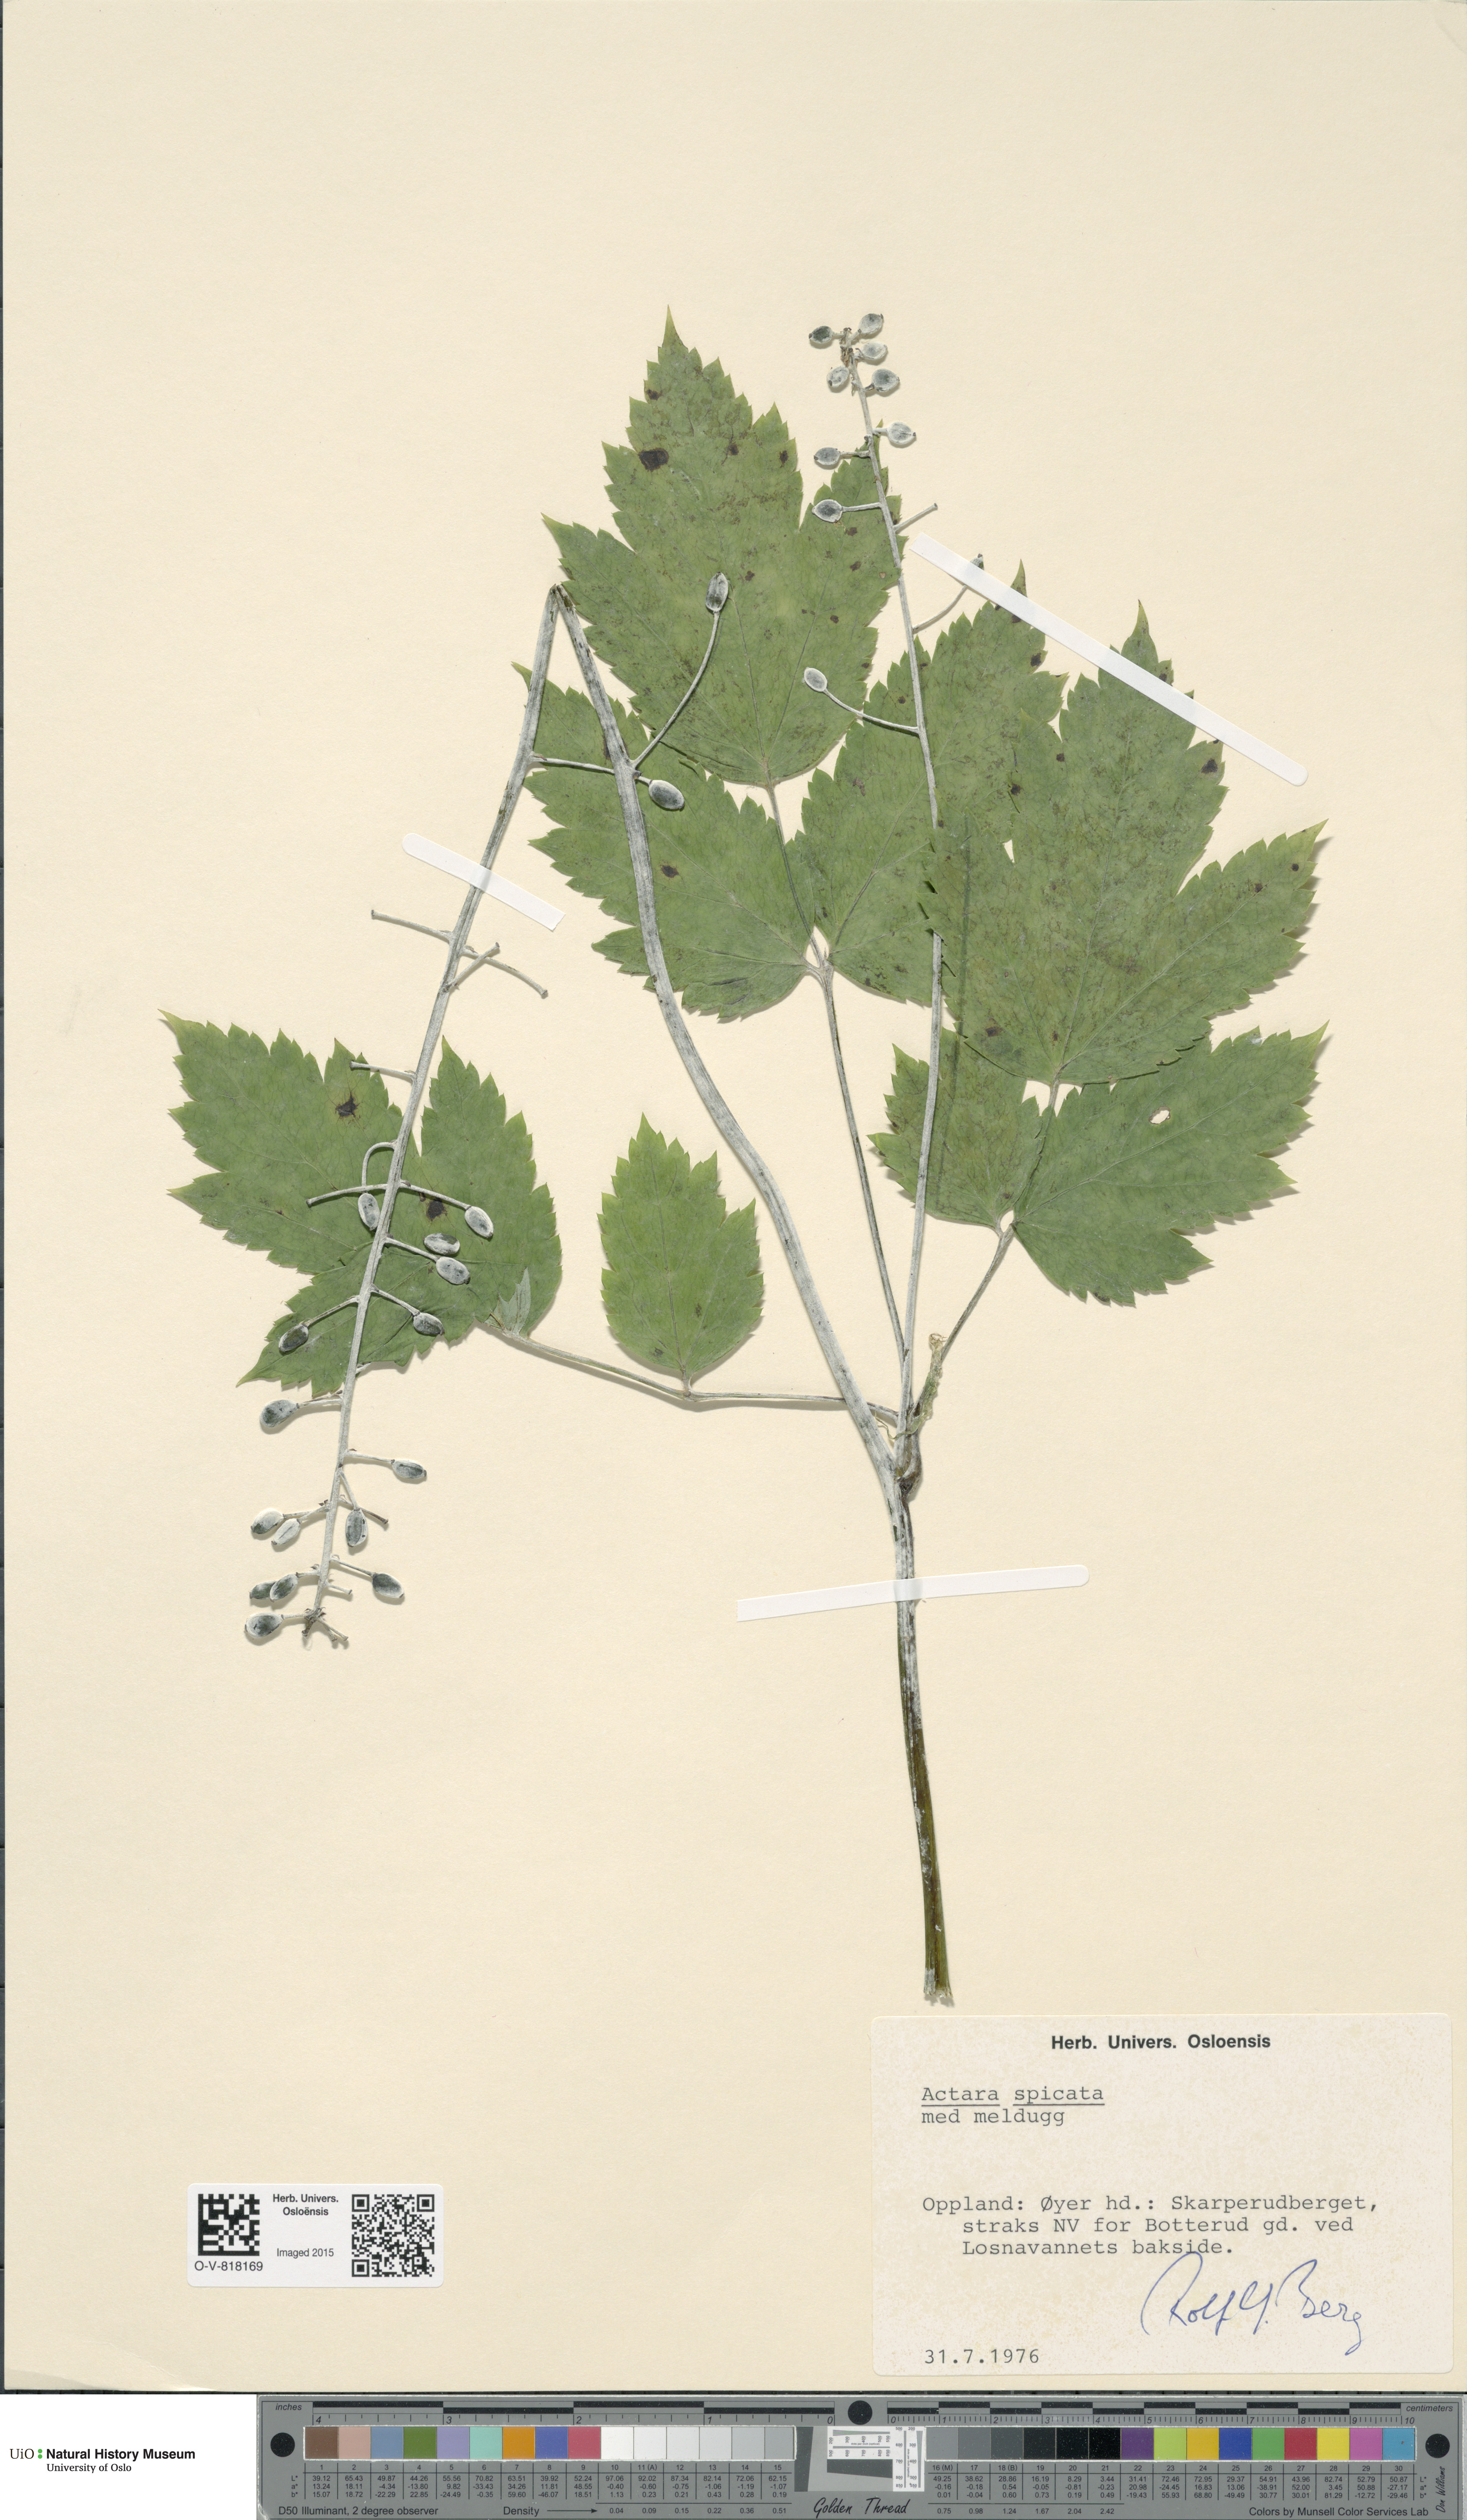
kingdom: Plantae
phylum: Tracheophyta
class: Magnoliopsida
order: Ranunculales
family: Ranunculaceae
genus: Actaea
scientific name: Actaea spicata
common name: Baneberry
